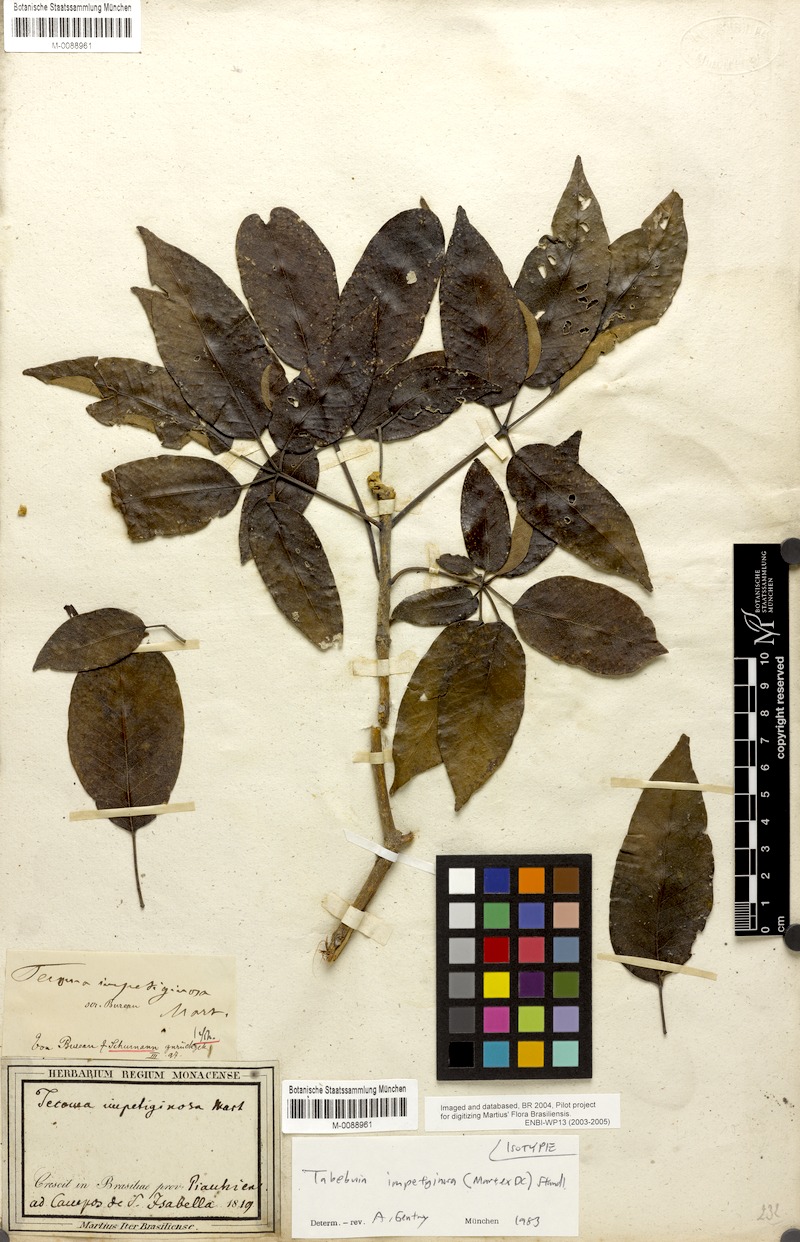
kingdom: Plantae
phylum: Tracheophyta
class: Magnoliopsida
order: Lamiales
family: Bignoniaceae
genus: Handroanthus
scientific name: Handroanthus impetiginosum
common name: Pink trumpet tree
